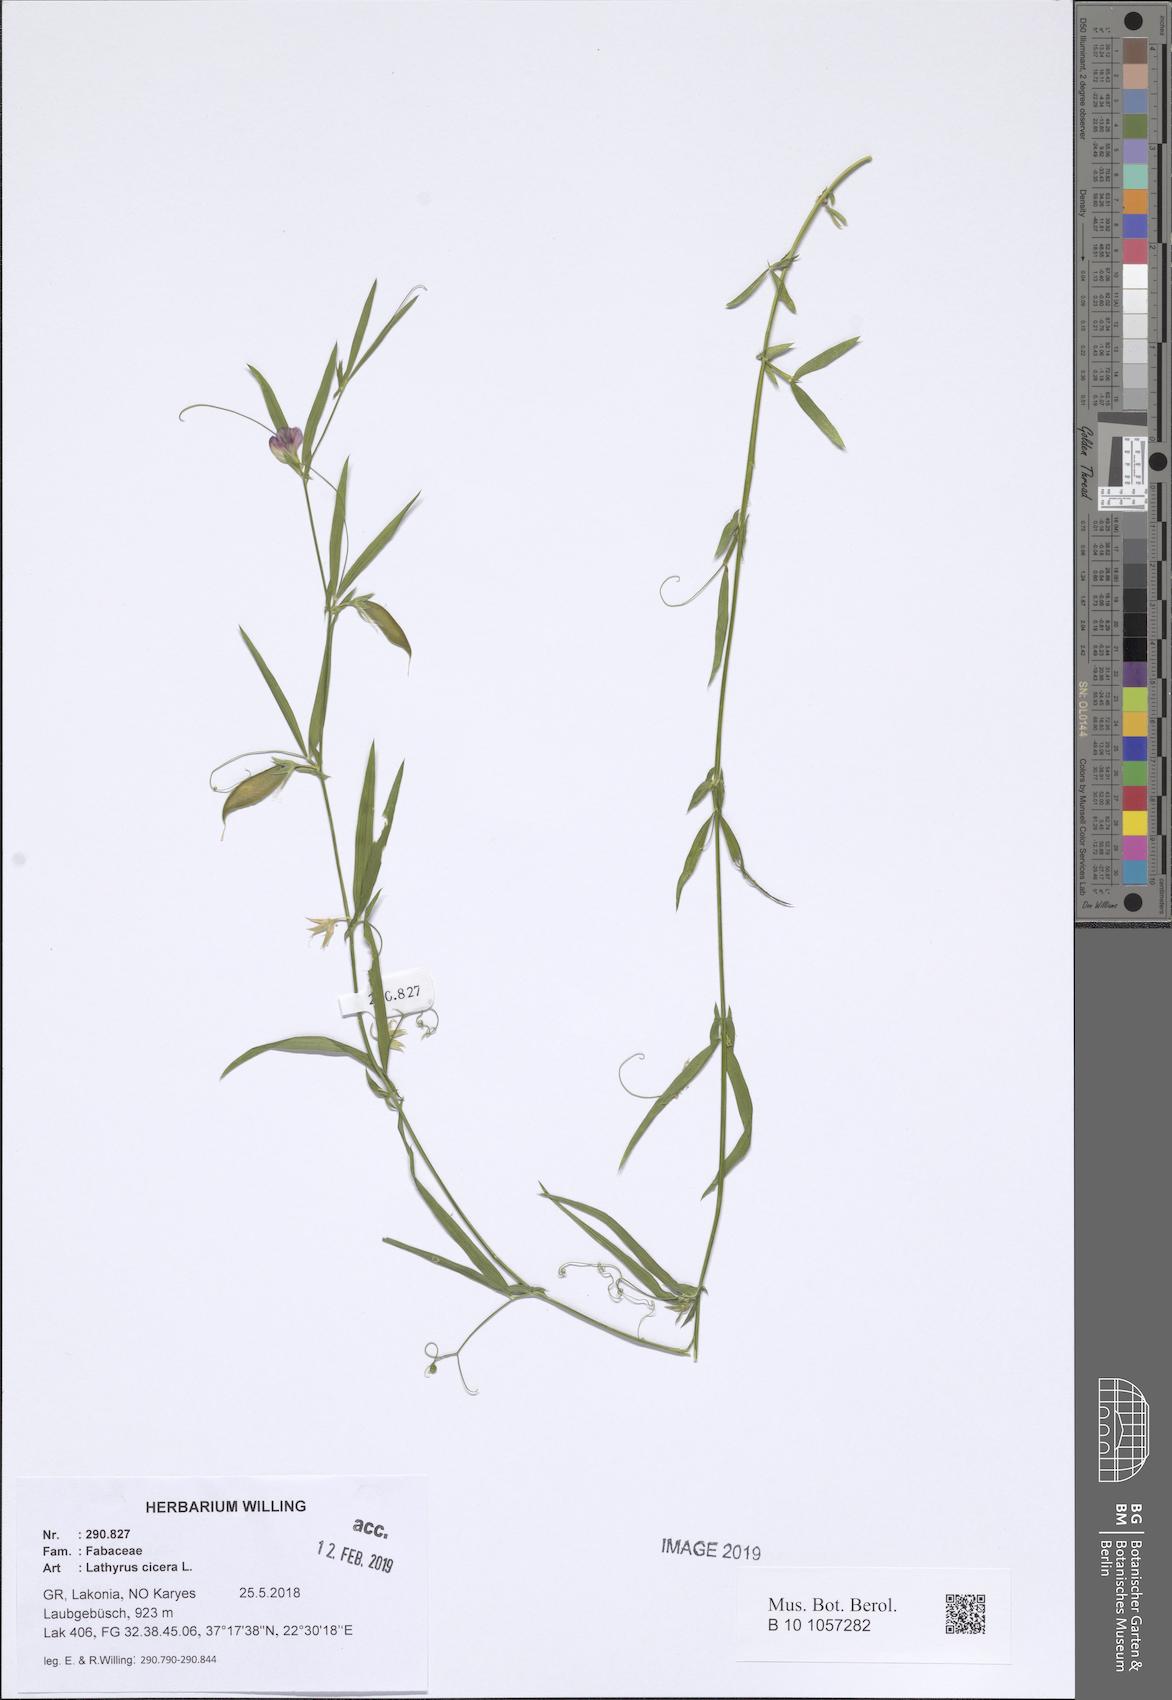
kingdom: Plantae
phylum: Tracheophyta
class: Magnoliopsida
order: Fabales
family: Fabaceae
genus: Lathyrus
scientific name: Lathyrus cicera
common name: Red vetchling
